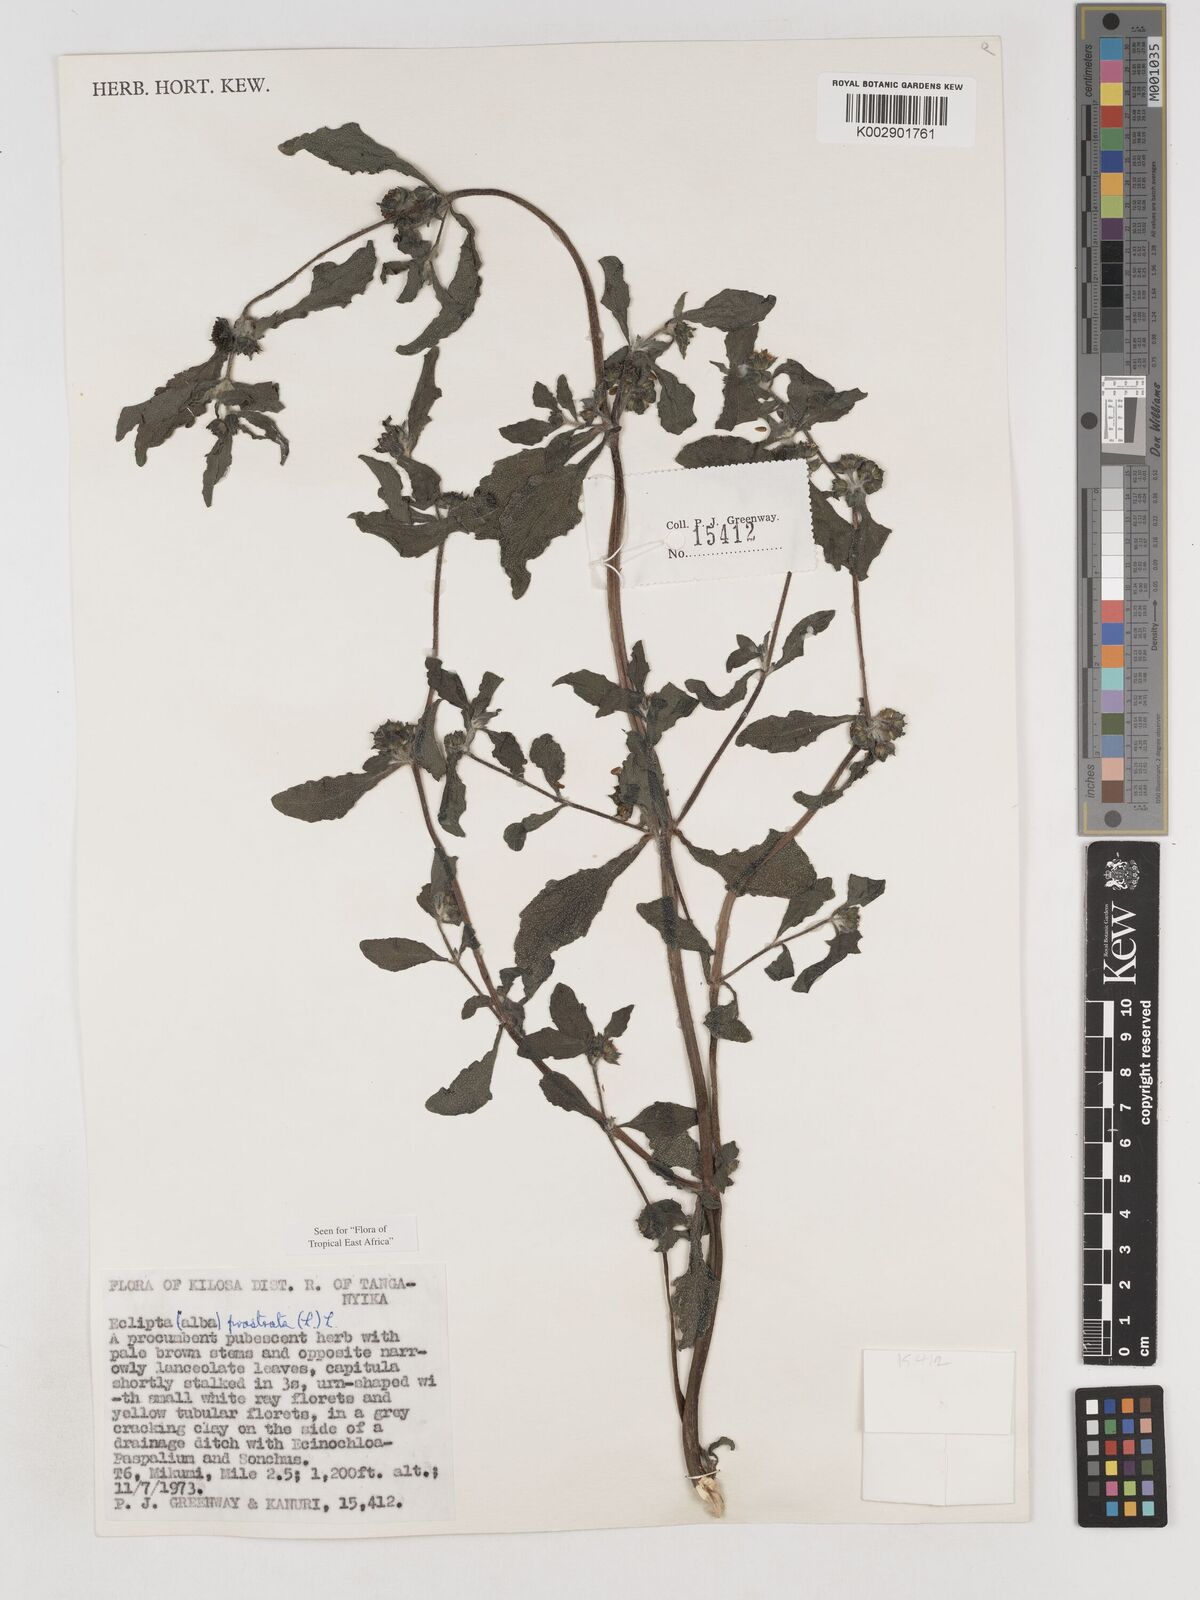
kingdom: Plantae
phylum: Tracheophyta
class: Magnoliopsida
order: Asterales
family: Asteraceae
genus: Eclipta
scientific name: Eclipta alba
